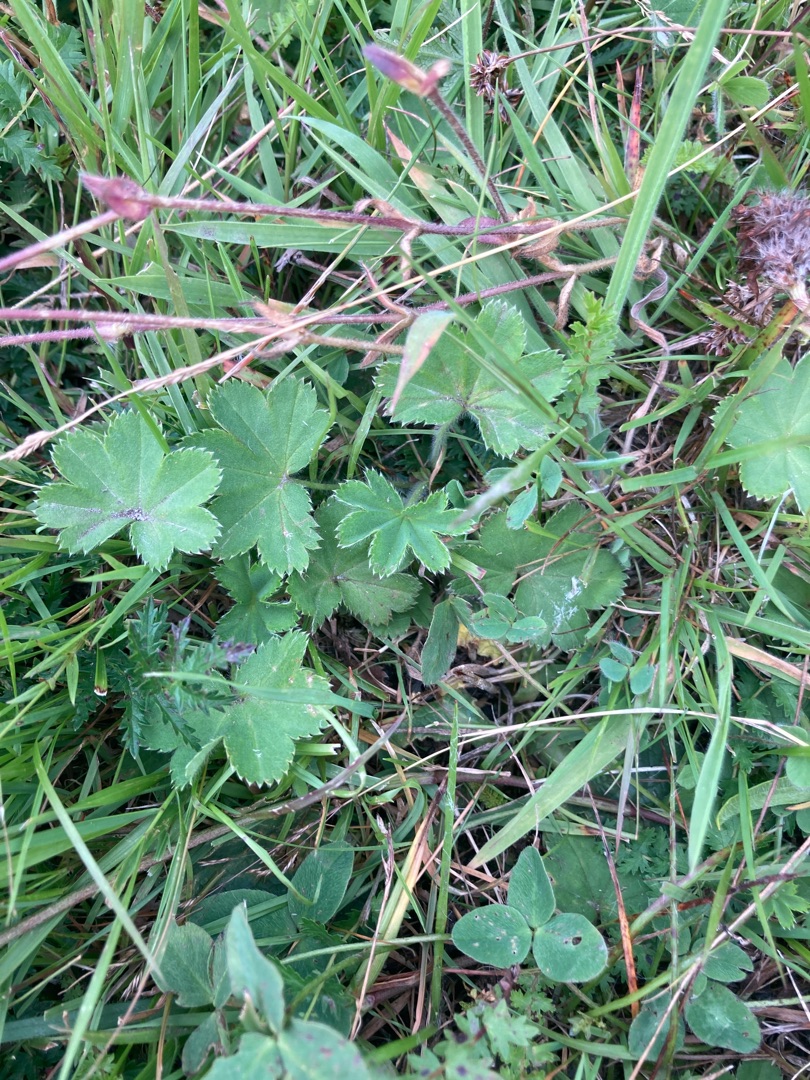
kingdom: Plantae
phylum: Tracheophyta
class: Magnoliopsida
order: Rosales
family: Rosaceae
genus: Alchemilla
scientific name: Alchemilla glaucescens
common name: Blågrøn løvefod
